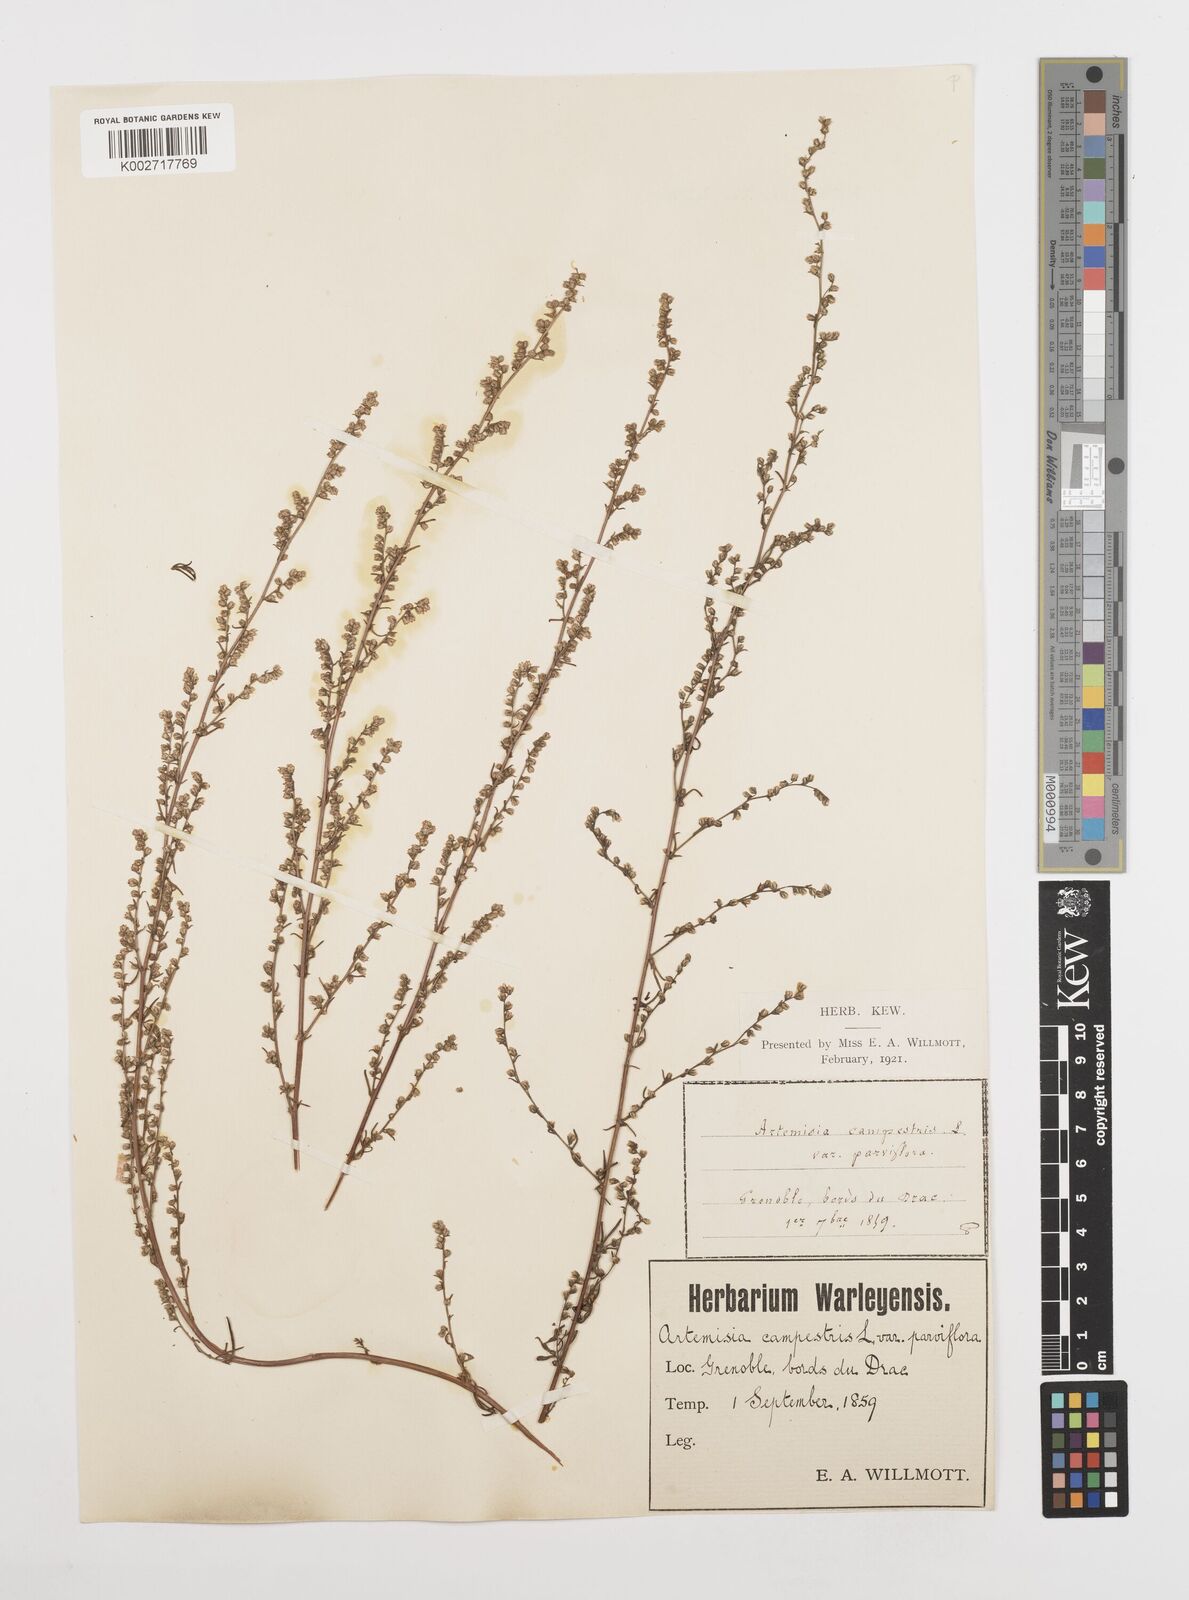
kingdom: Plantae
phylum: Tracheophyta
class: Magnoliopsida
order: Asterales
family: Asteraceae
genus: Artemisia
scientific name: Artemisia campestris
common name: Field wormwood
